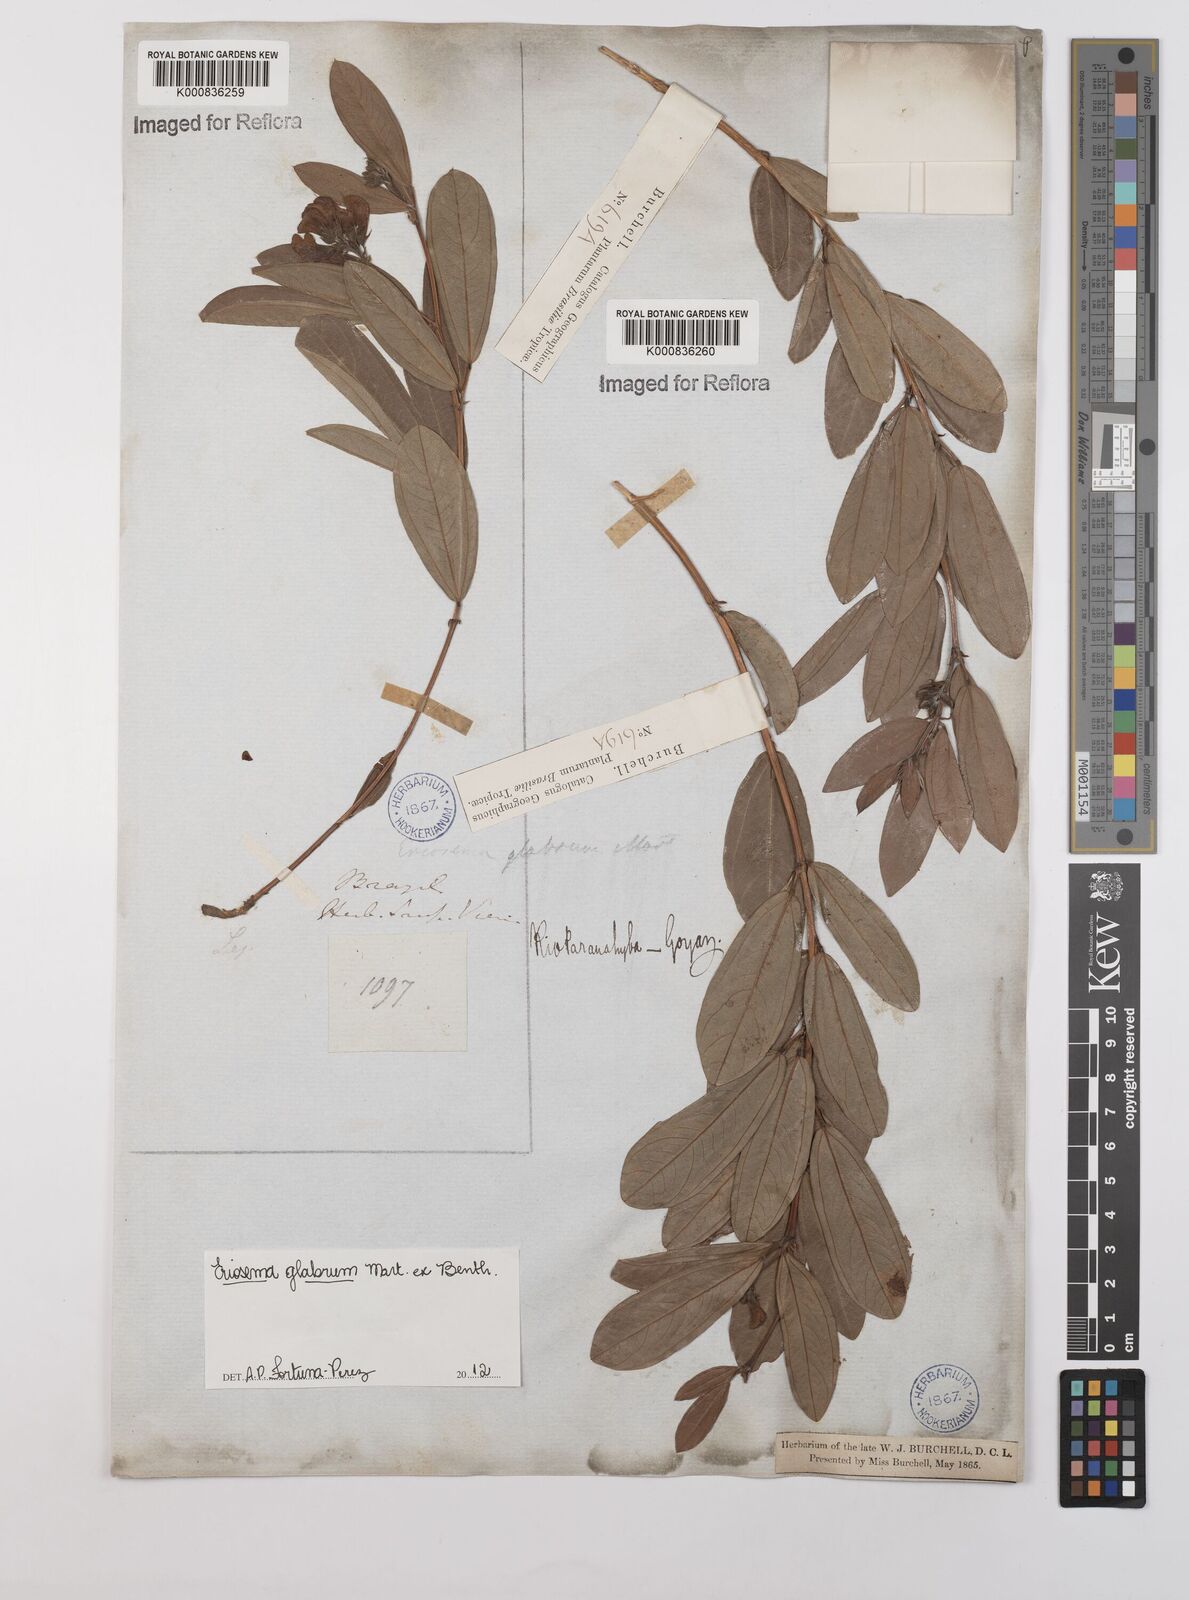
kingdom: Plantae
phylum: Tracheophyta
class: Magnoliopsida
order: Fabales
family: Fabaceae
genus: Eriosema
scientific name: Eriosema glabrum
